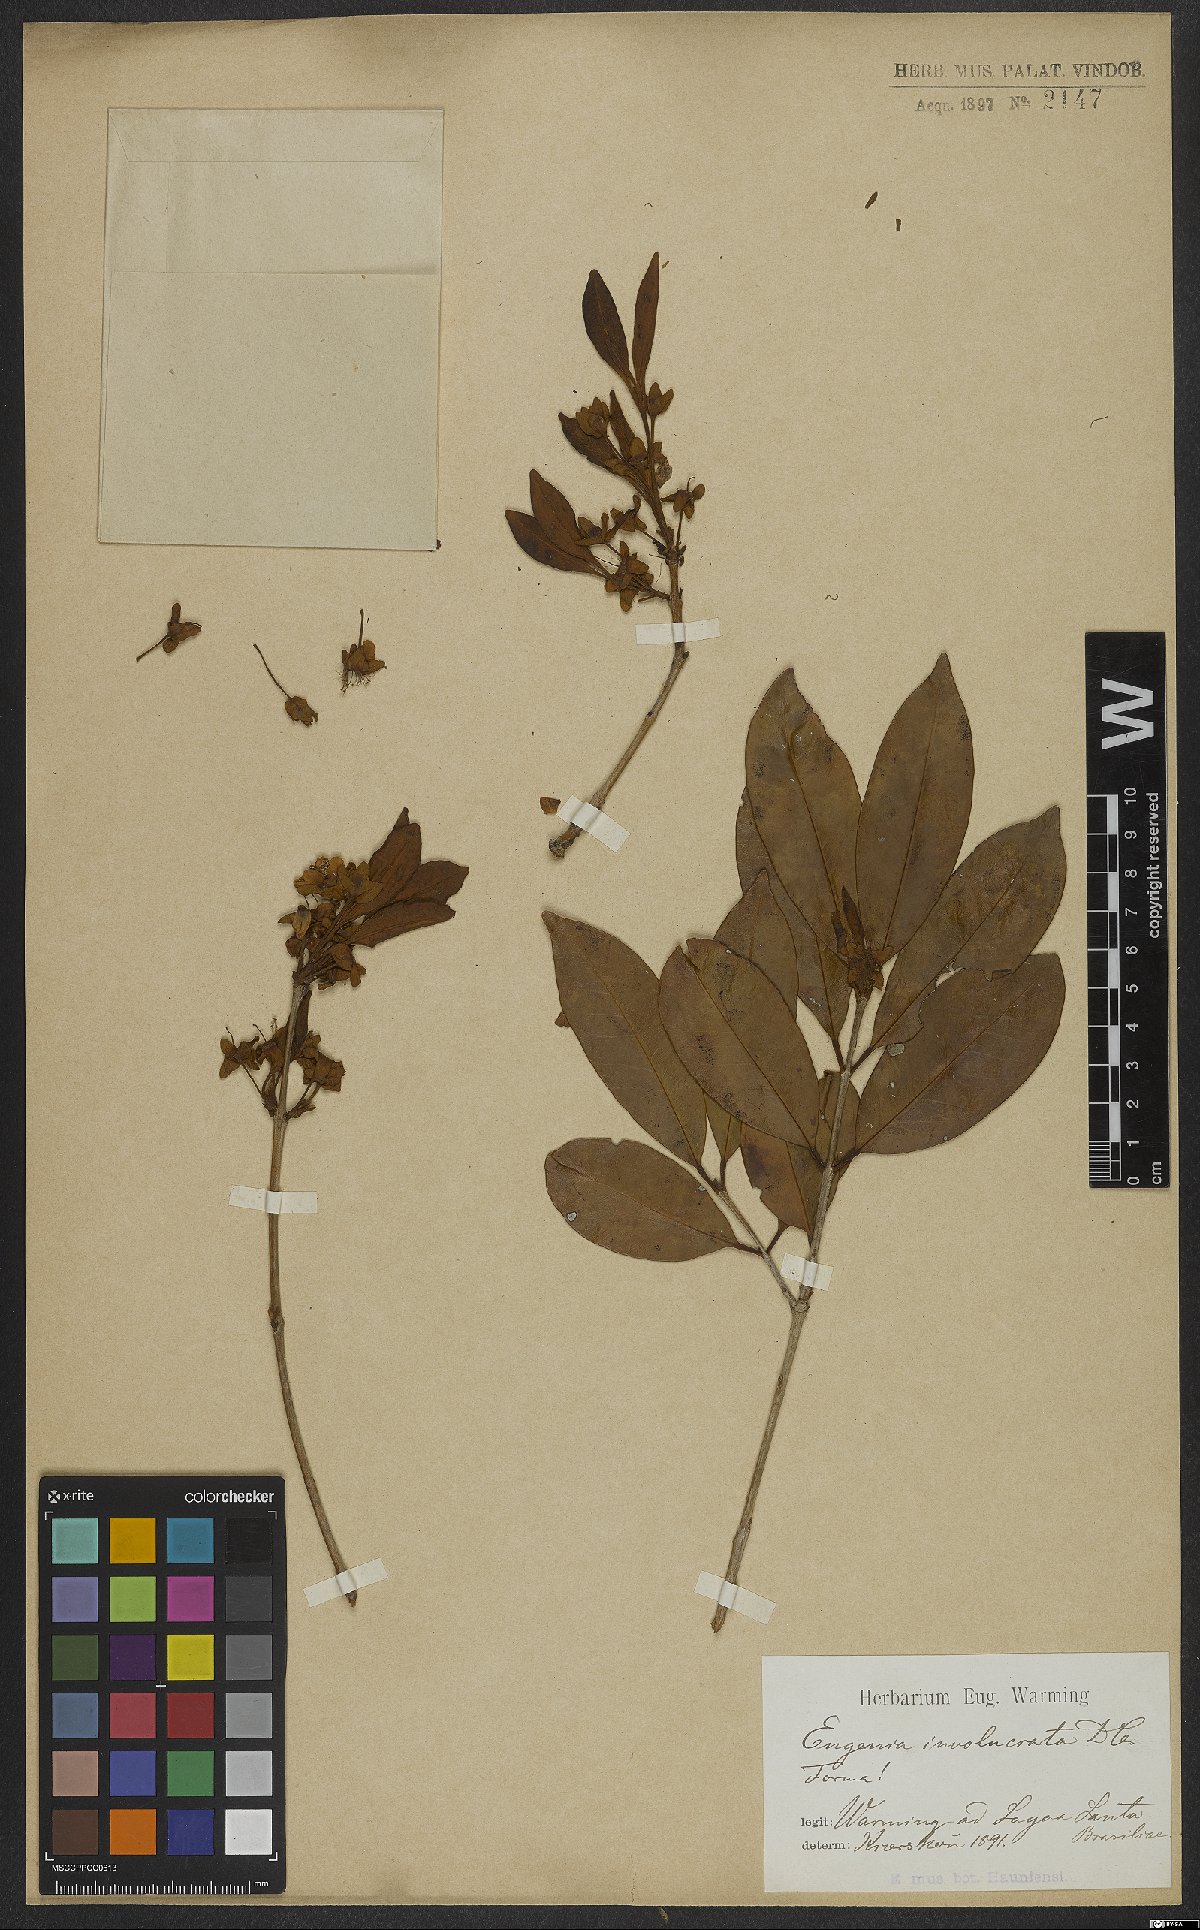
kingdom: Plantae
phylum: Tracheophyta
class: Magnoliopsida
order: Myrtales
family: Myrtaceae
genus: Eugenia
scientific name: Eugenia involucrata
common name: Cherry-of-the-rio grande
